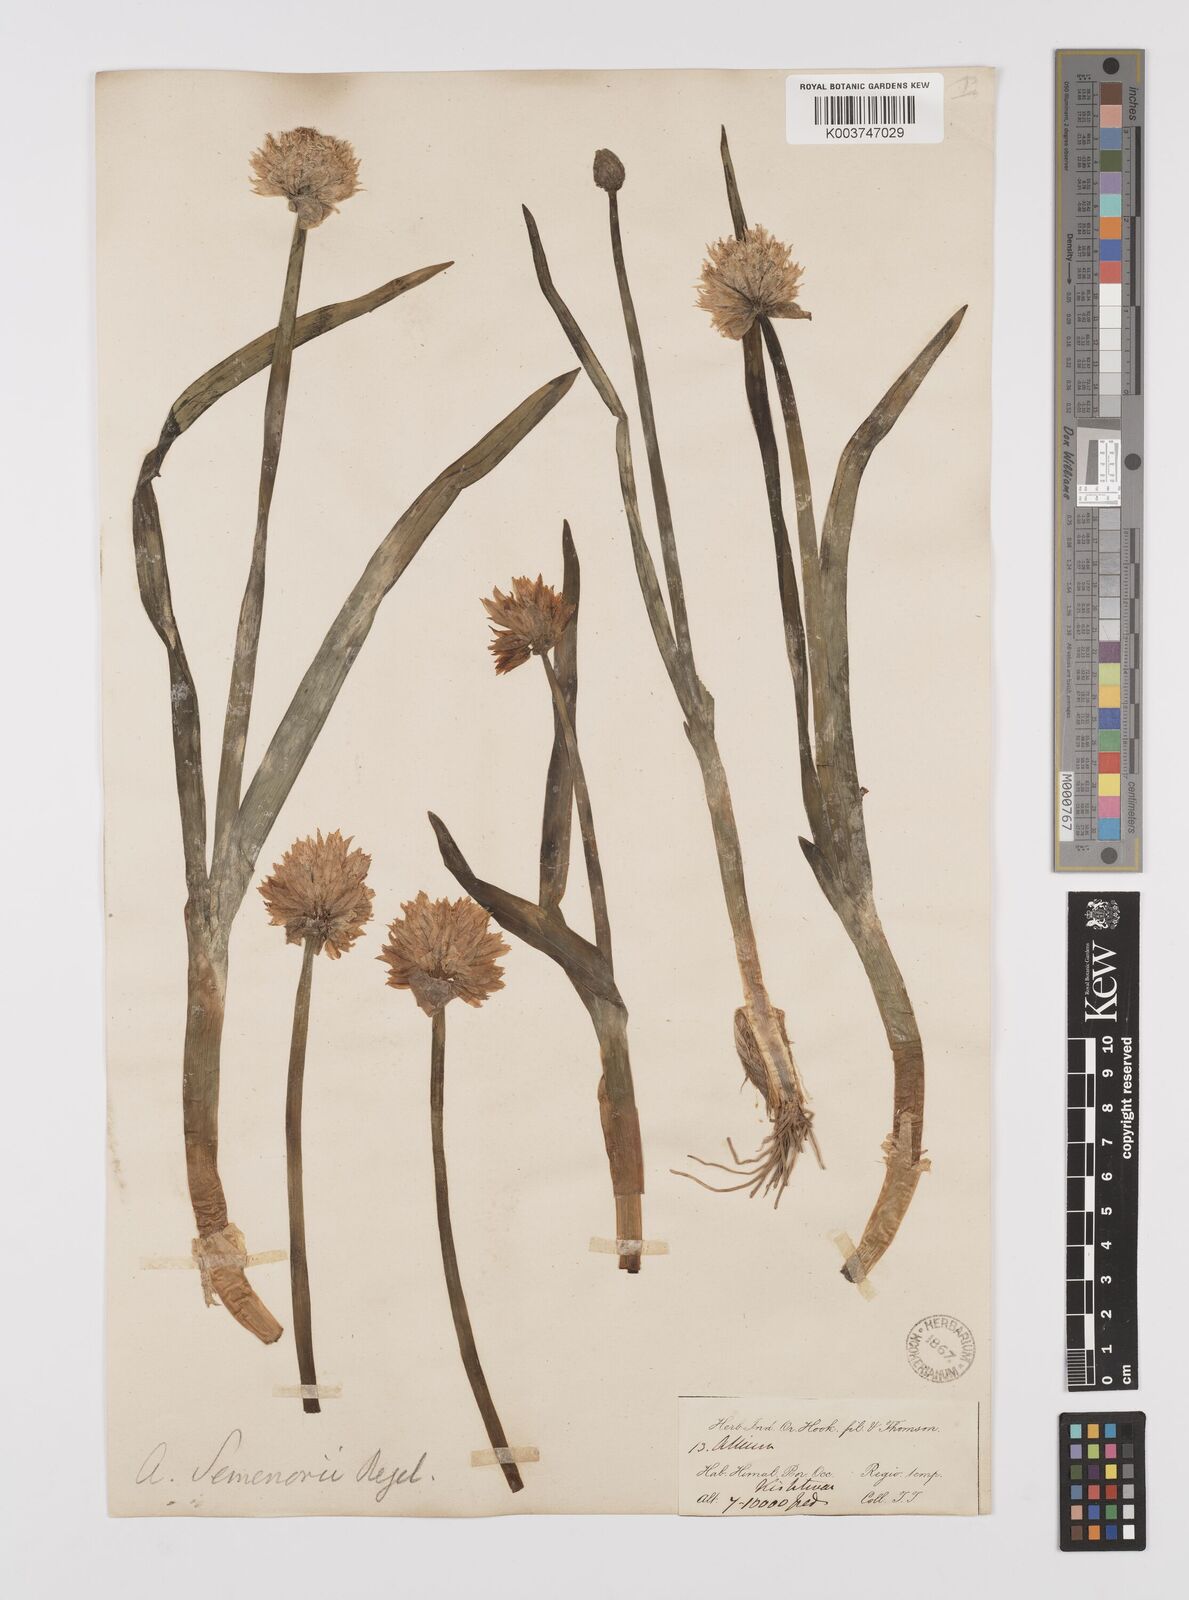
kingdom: Plantae
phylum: Tracheophyta
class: Liliopsida
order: Asparagales
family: Amaryllidaceae
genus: Allium
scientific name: Allium semenovii
